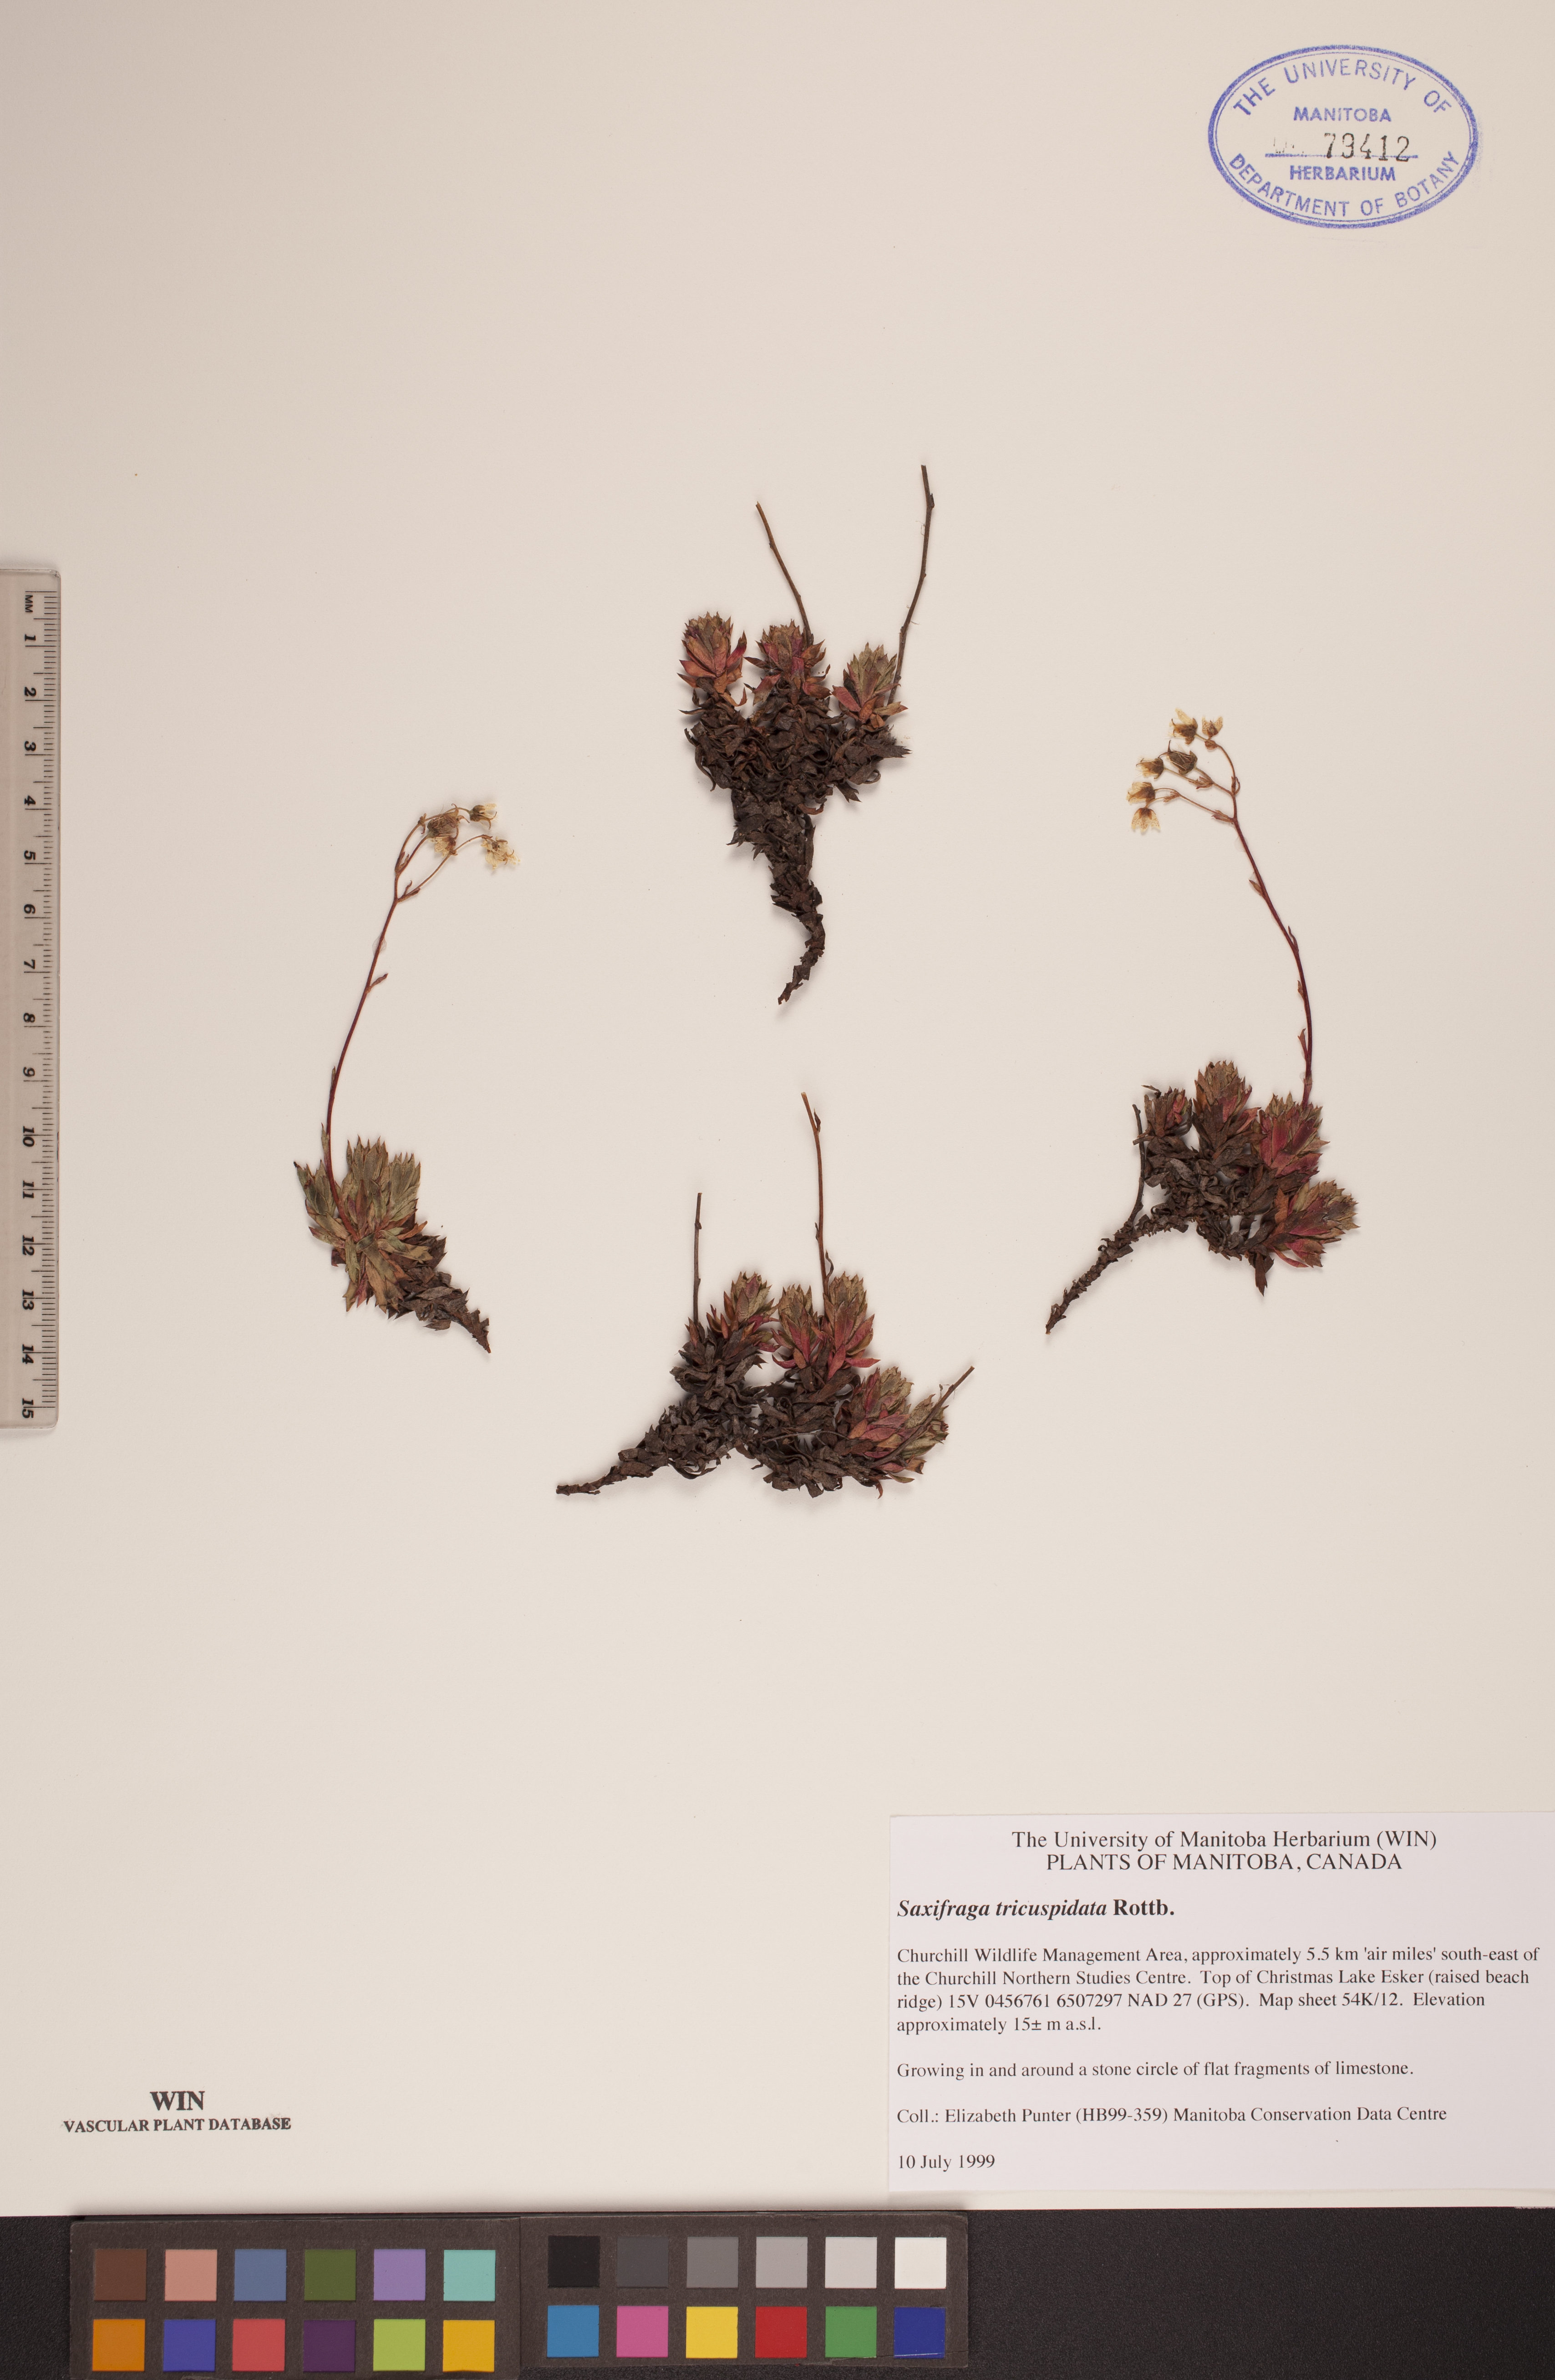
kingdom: Plantae
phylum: Tracheophyta
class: Magnoliopsida
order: Saxifragales
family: Saxifragaceae
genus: Saxifraga
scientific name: Saxifraga tricuspidata
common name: Prickly saxifrage
